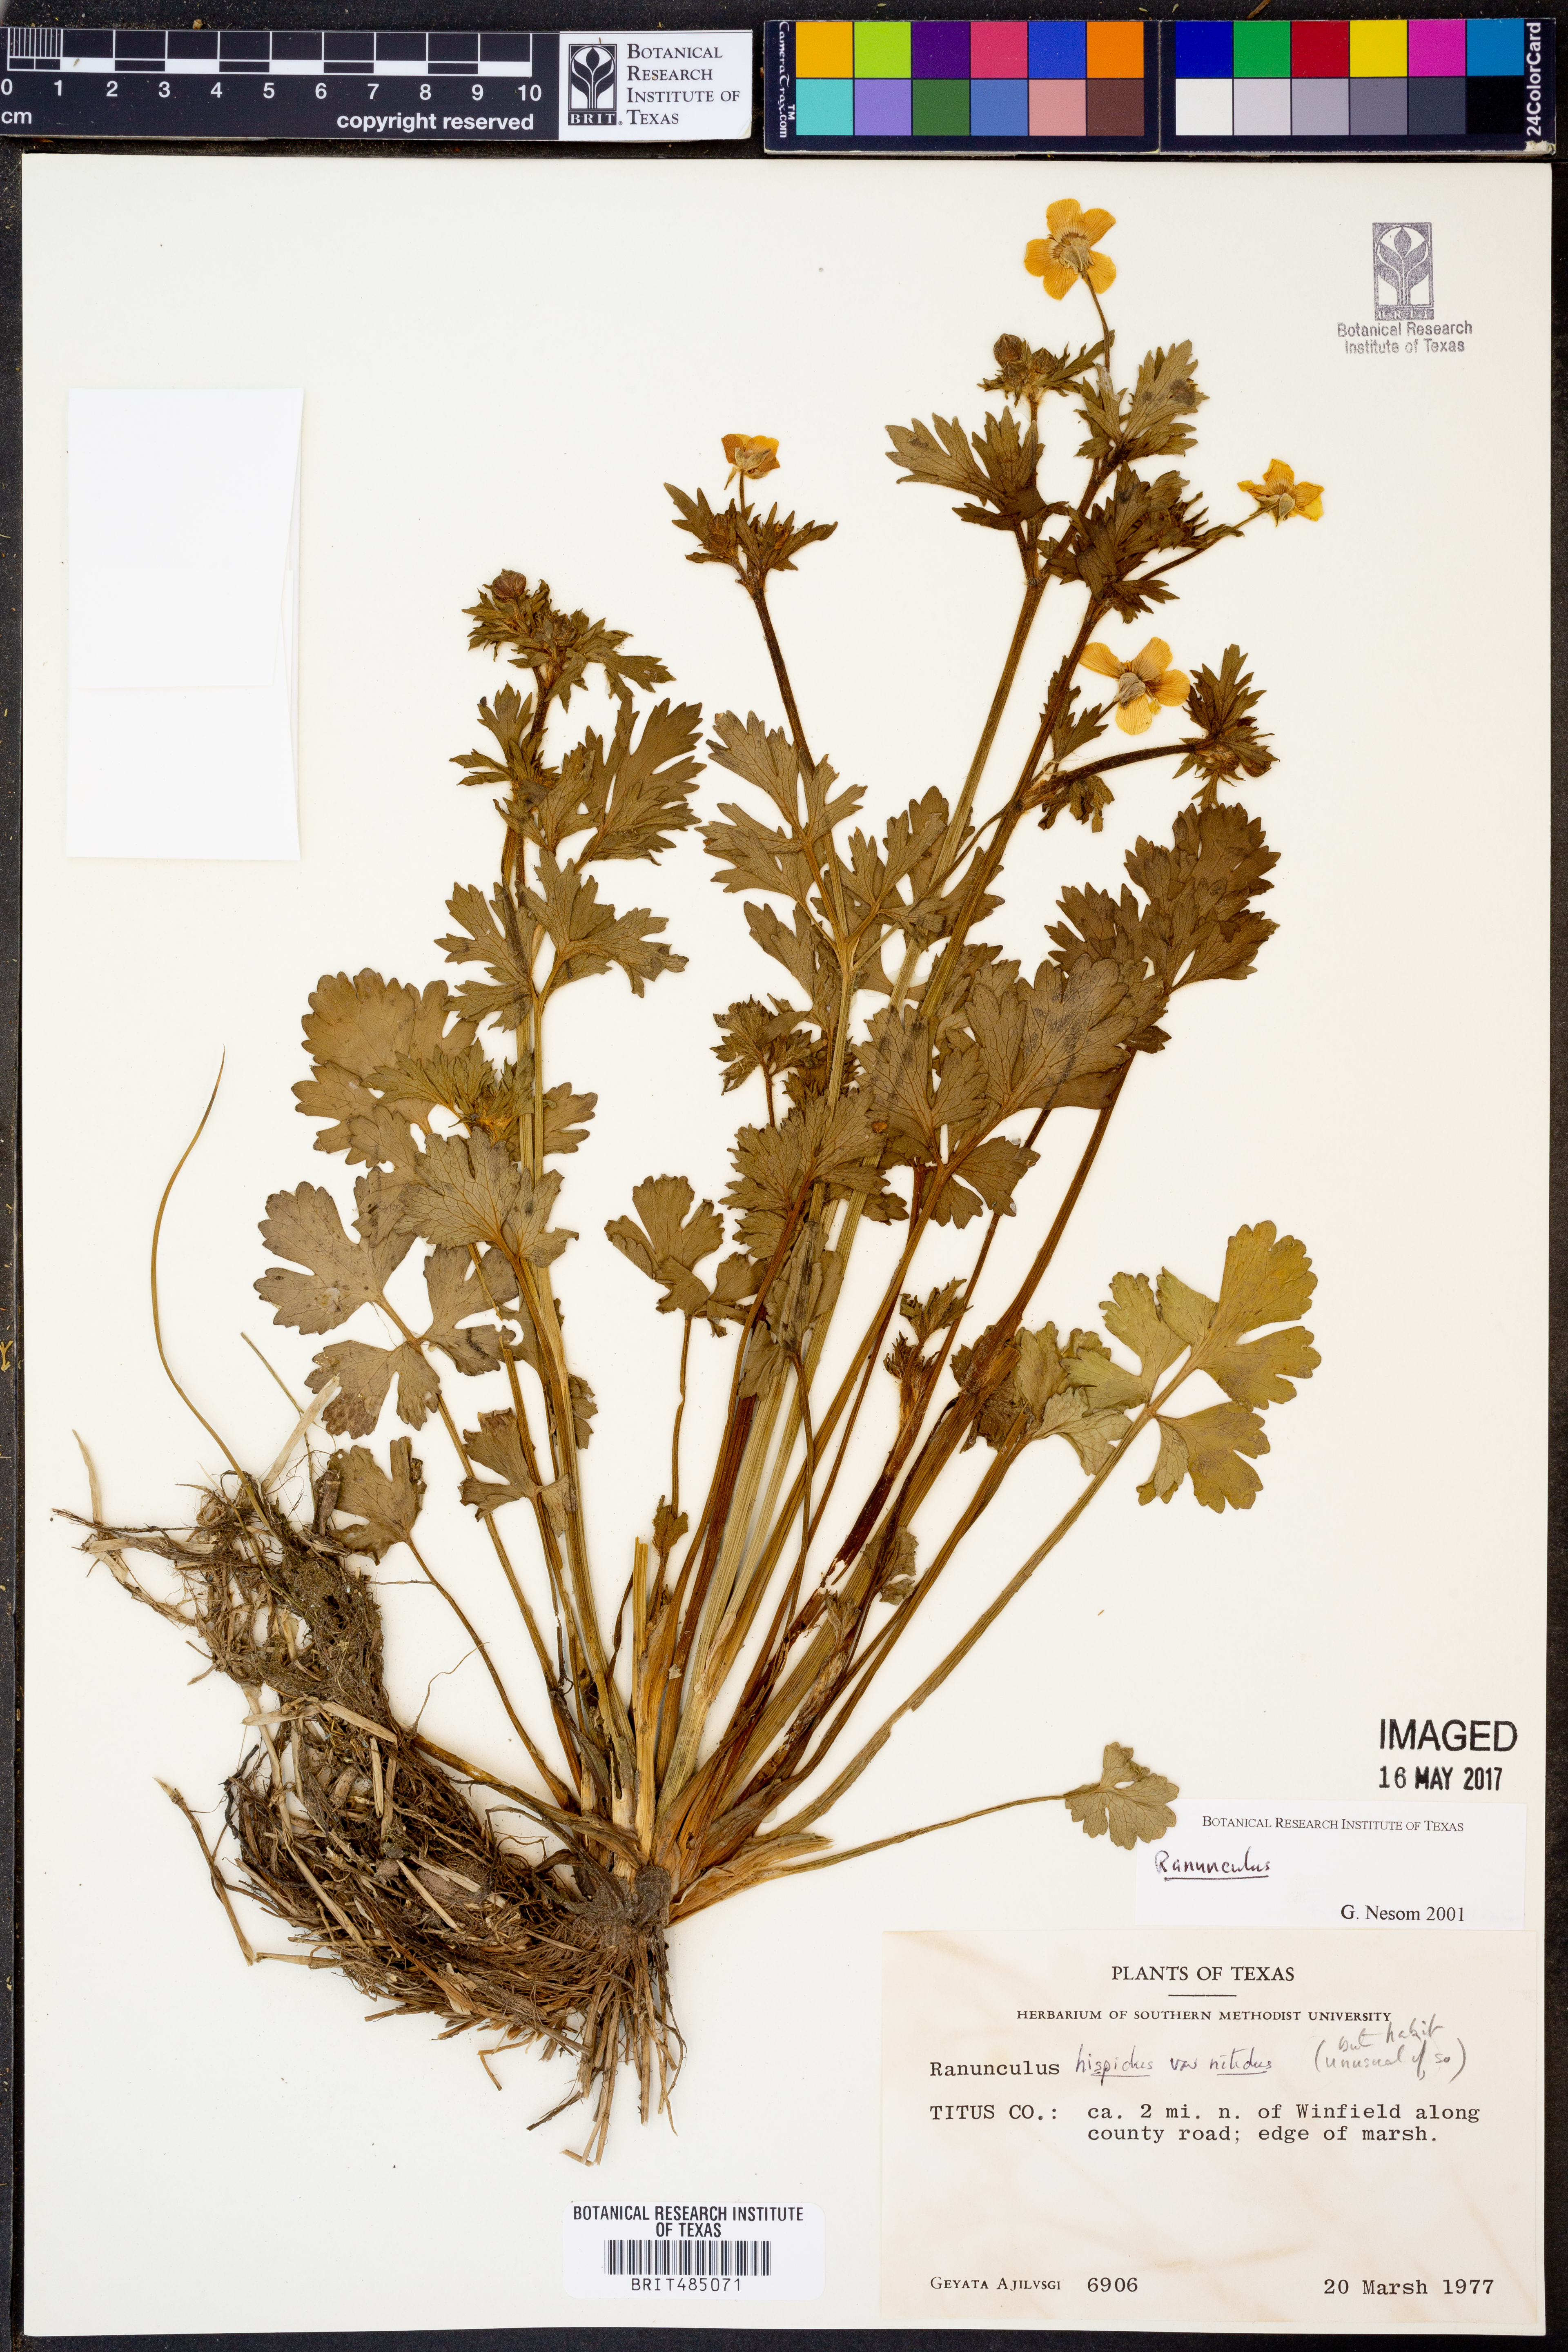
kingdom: Plantae
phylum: Tracheophyta
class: Magnoliopsida
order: Ranunculales
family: Ranunculaceae
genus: Ranunculus
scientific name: Ranunculus hispidus
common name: Bristly buttercup
